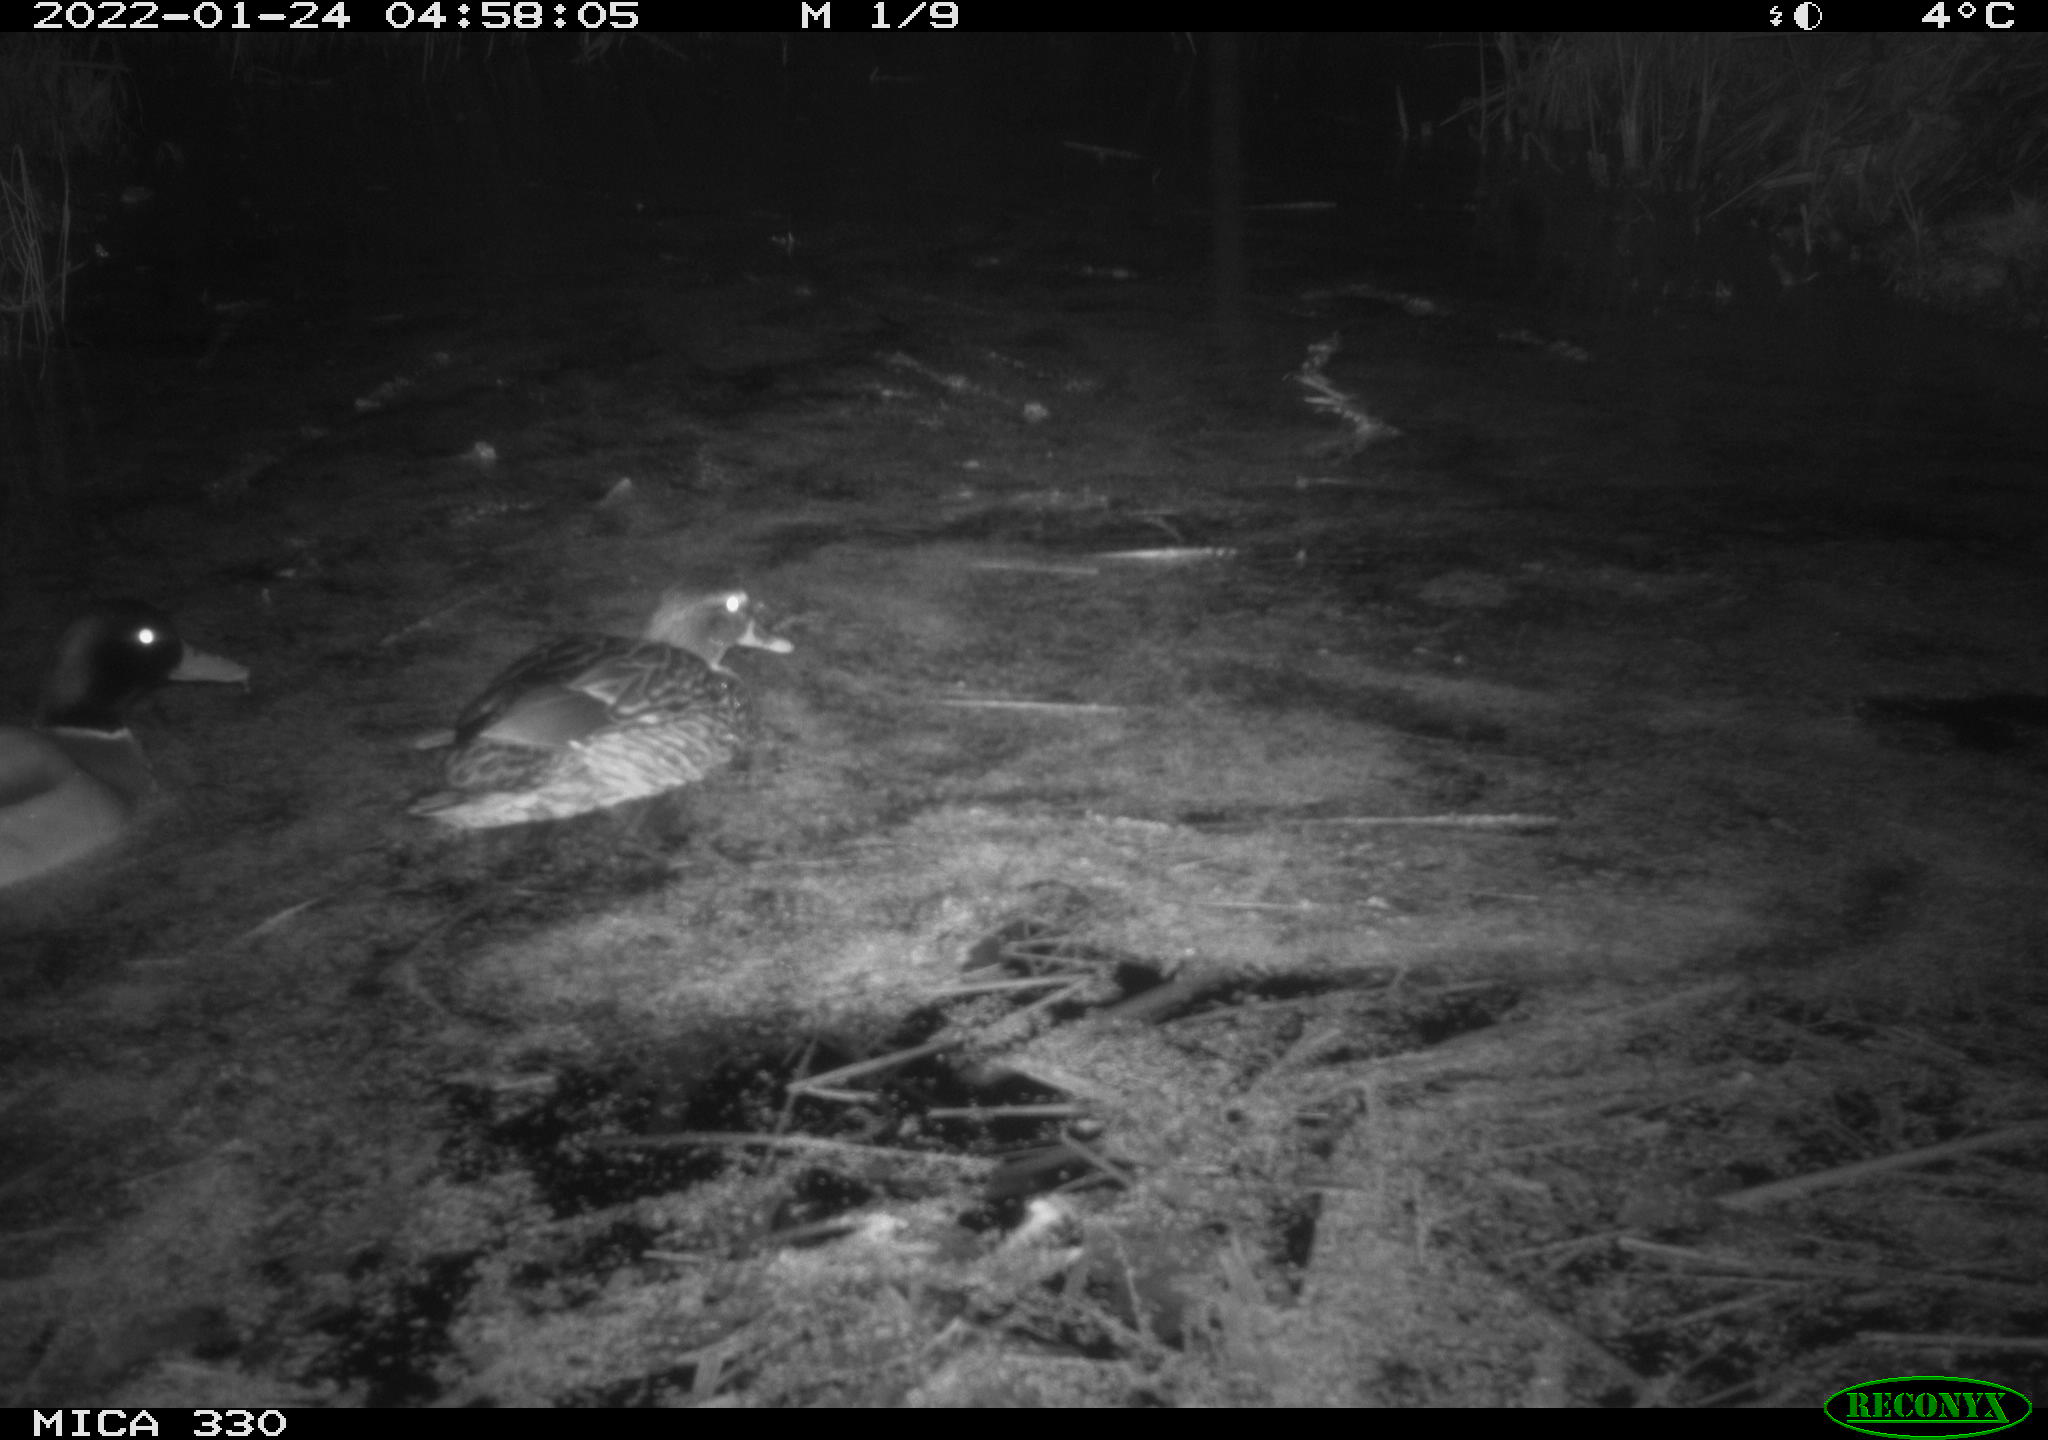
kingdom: Animalia
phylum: Chordata
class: Aves
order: Anseriformes
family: Anatidae
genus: Anas
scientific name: Anas platyrhynchos
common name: Mallard
